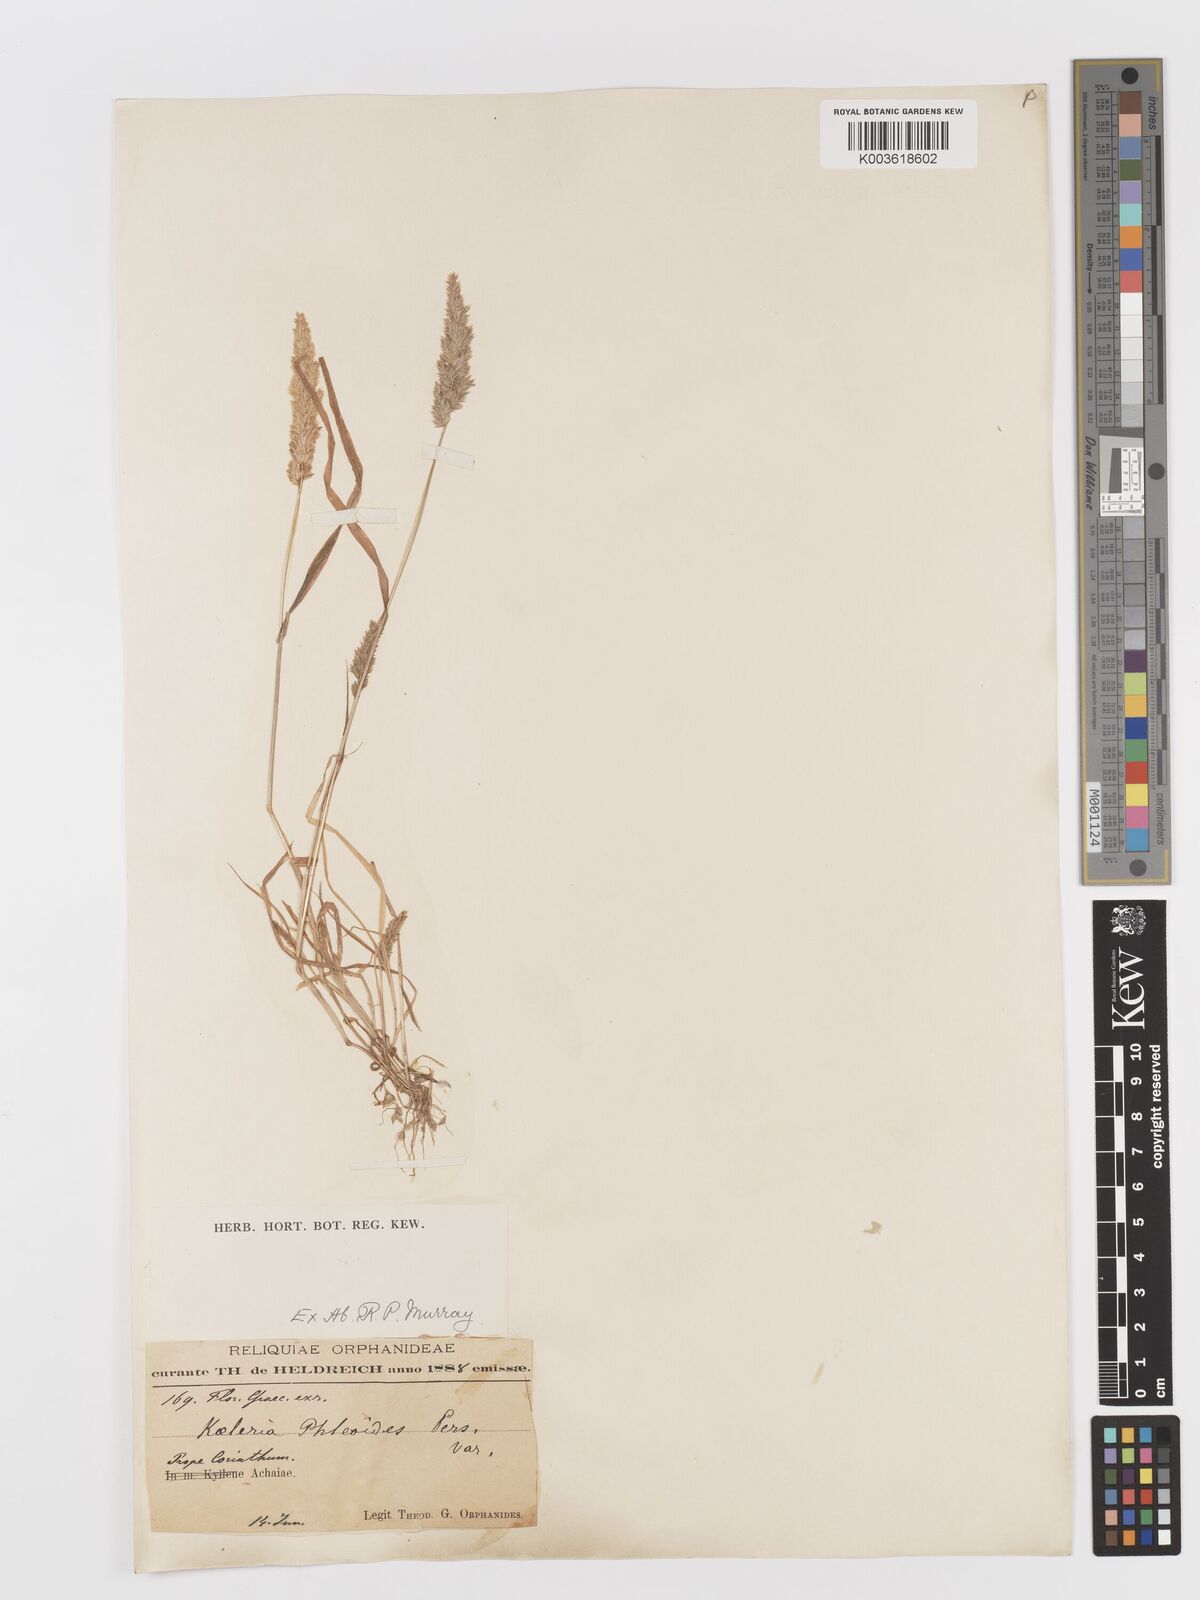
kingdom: Plantae
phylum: Tracheophyta
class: Liliopsida
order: Poales
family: Poaceae
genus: Rostraria
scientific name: Rostraria cristata
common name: Mediterranean hair-grass
